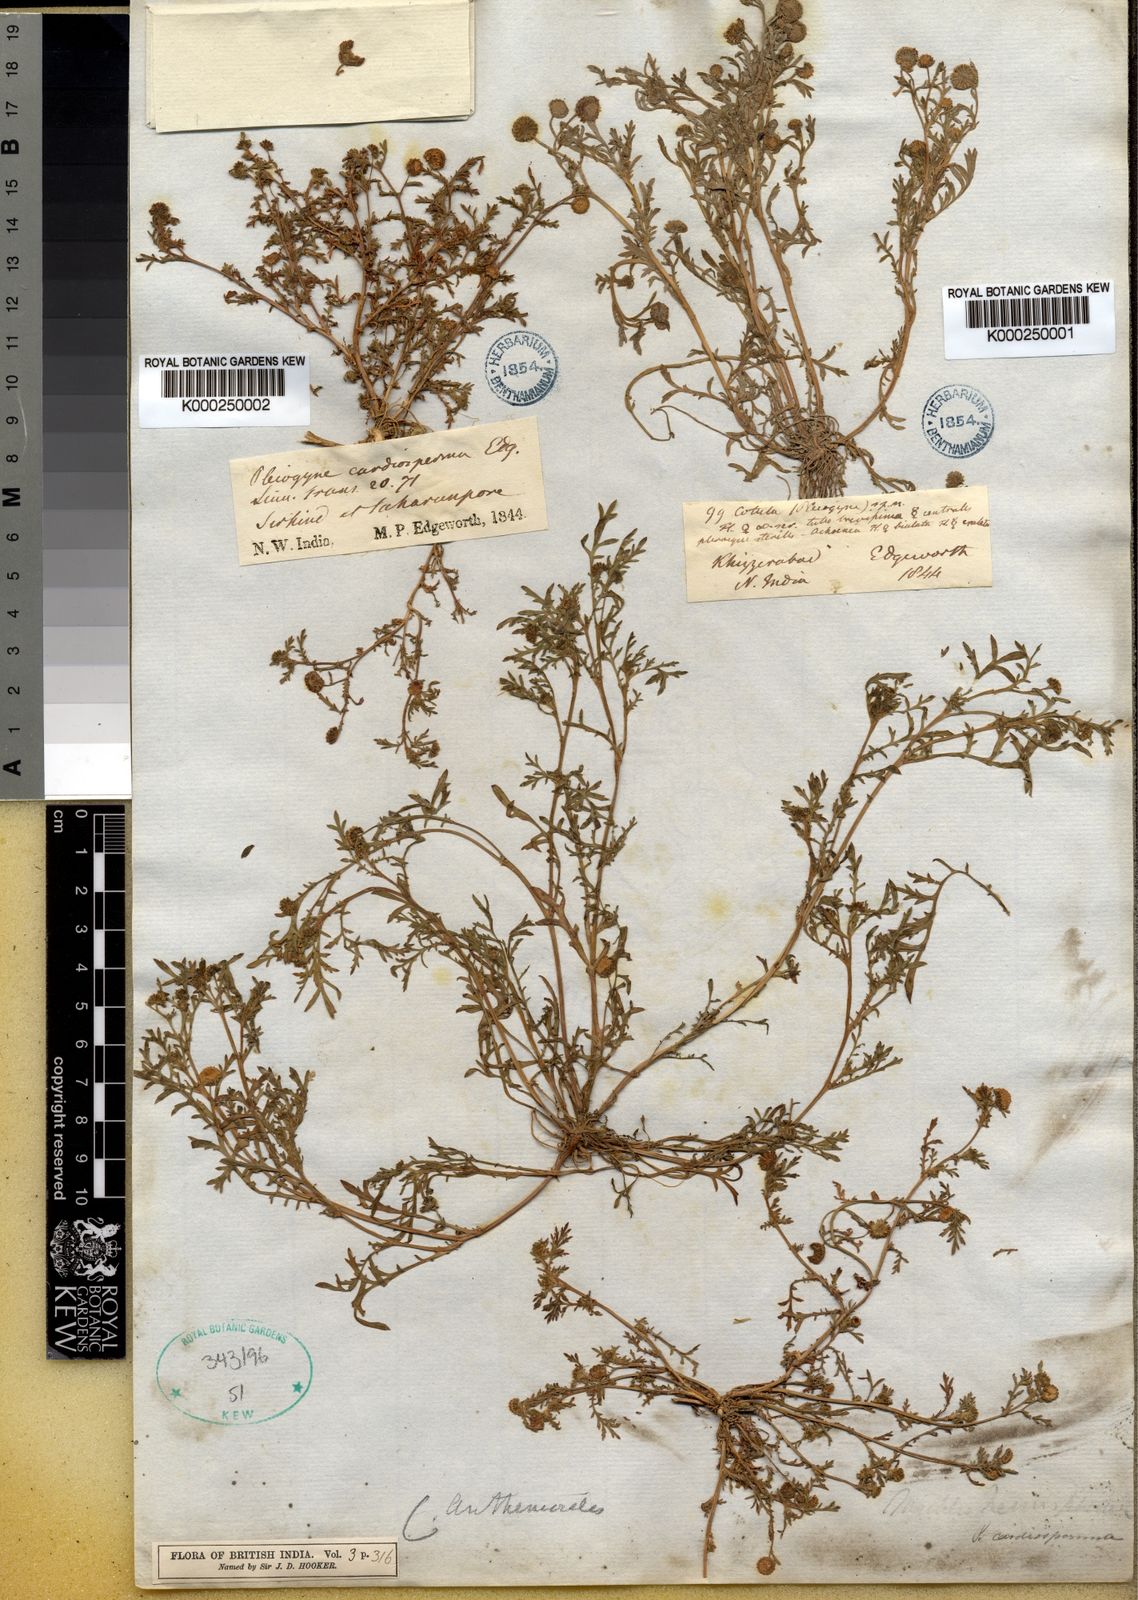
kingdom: Plantae
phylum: Tracheophyta
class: Magnoliopsida
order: Asterales
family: Asteraceae
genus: Cotula
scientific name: Cotula anthemoides
